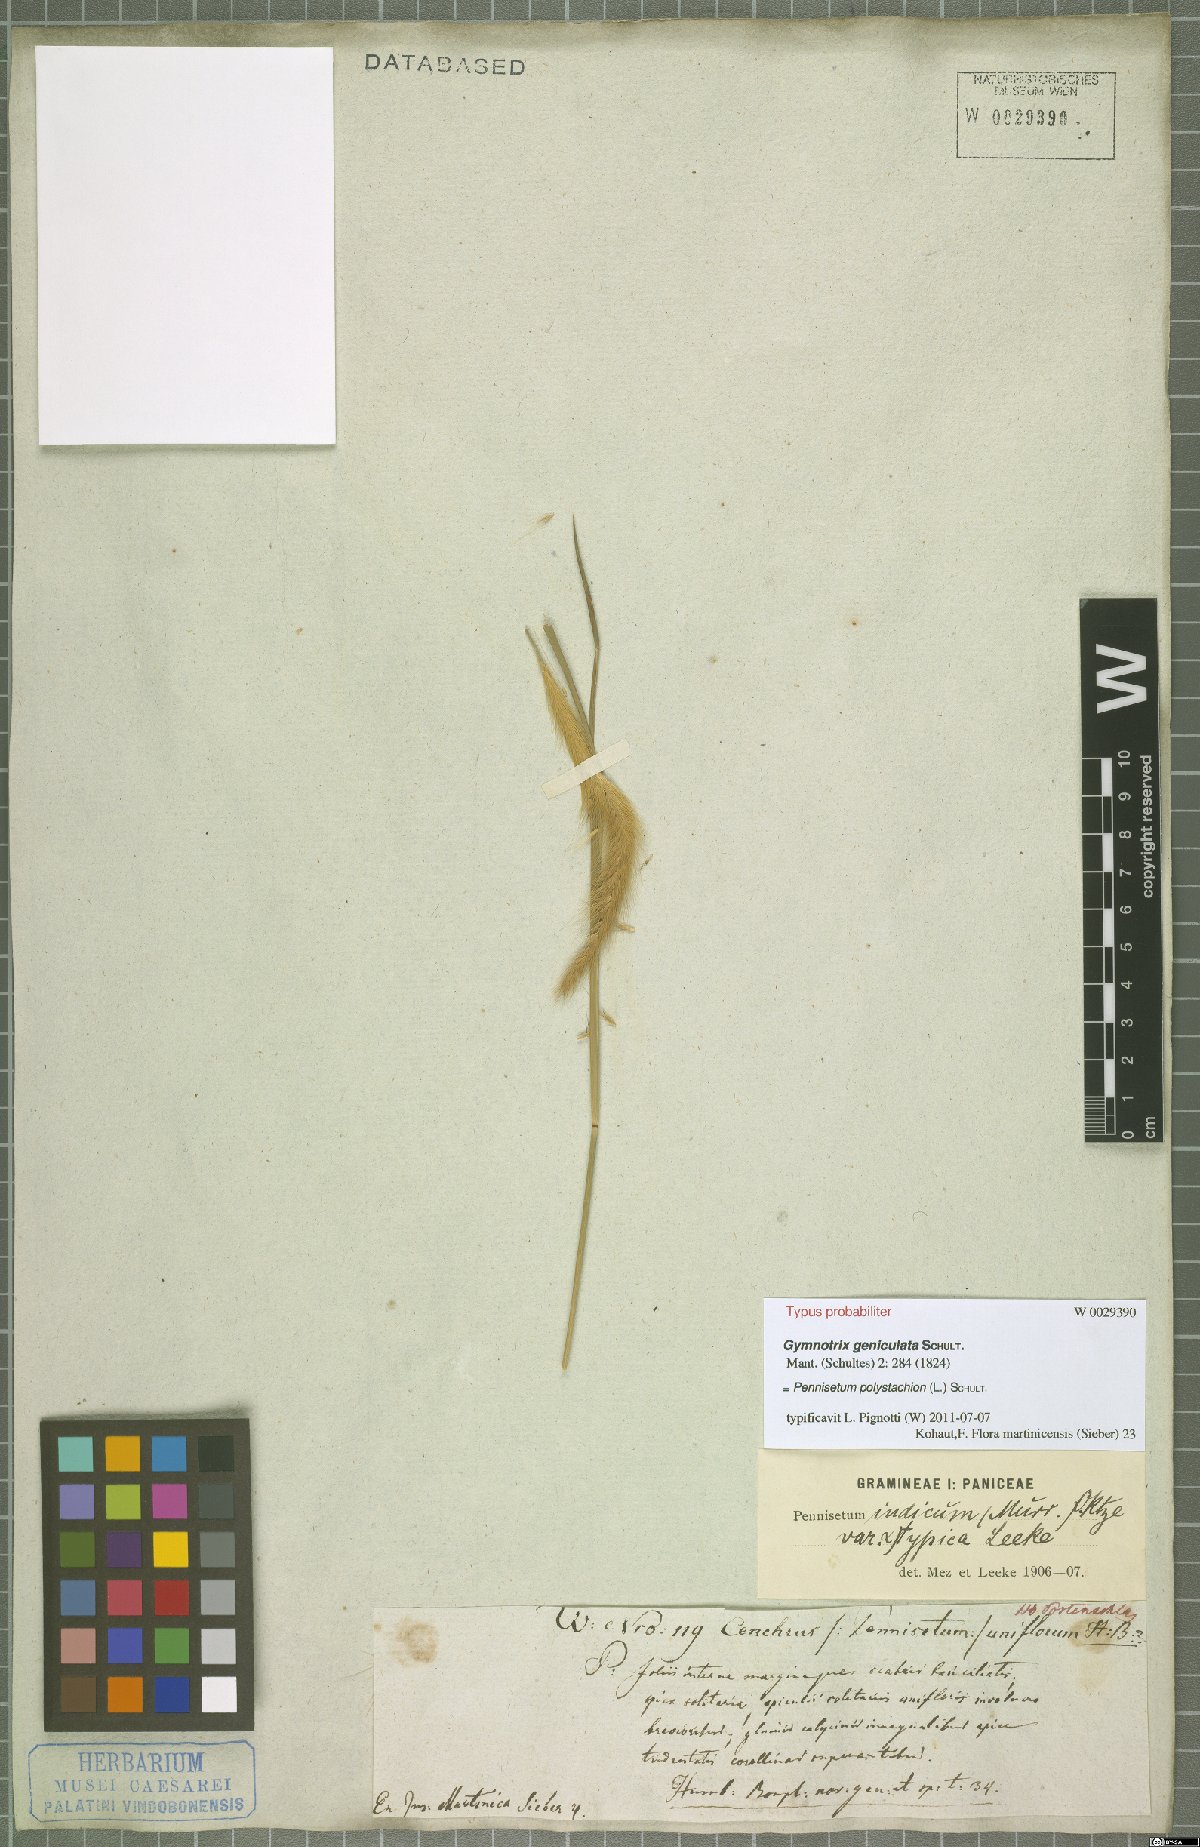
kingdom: Plantae
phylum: Tracheophyta
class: Liliopsida
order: Poales
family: Poaceae
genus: Setaria
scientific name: Setaria parviflora
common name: Knotroot bristle-grass
